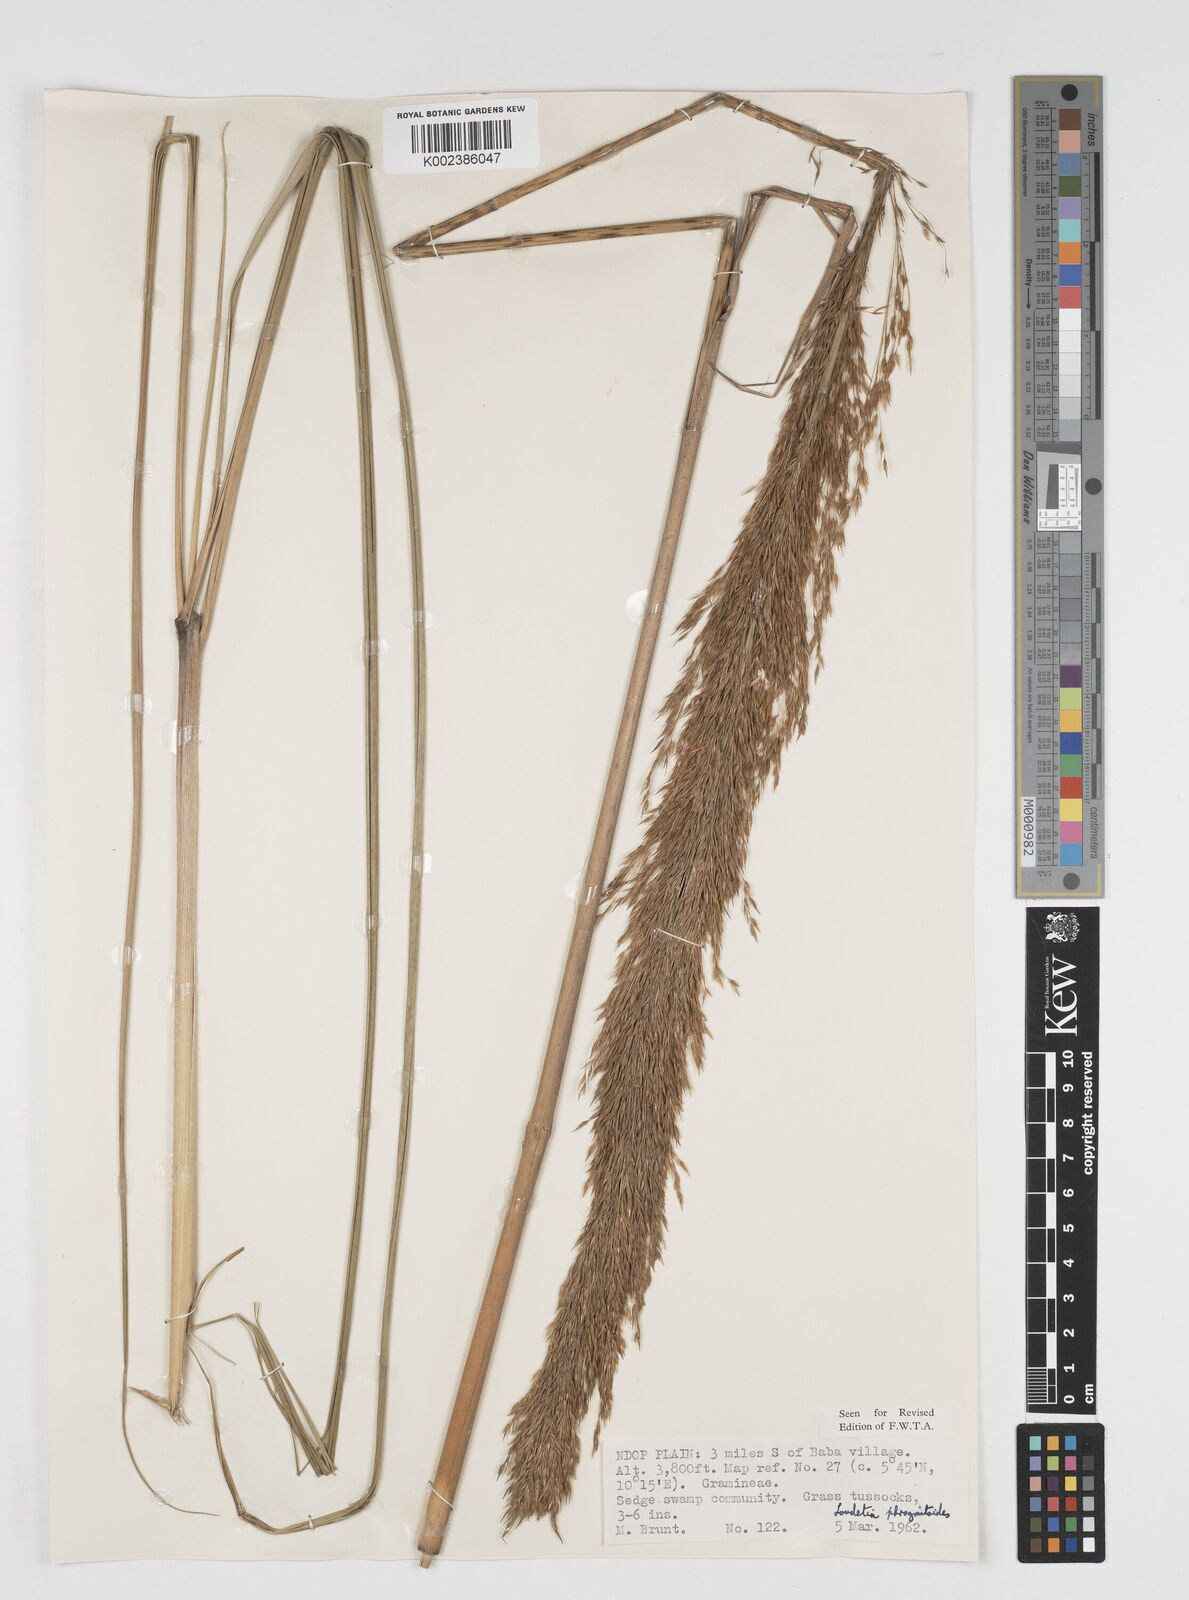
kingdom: Plantae
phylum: Tracheophyta
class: Liliopsida
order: Poales
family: Poaceae
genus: Loudetia
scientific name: Loudetia phragmitoides
